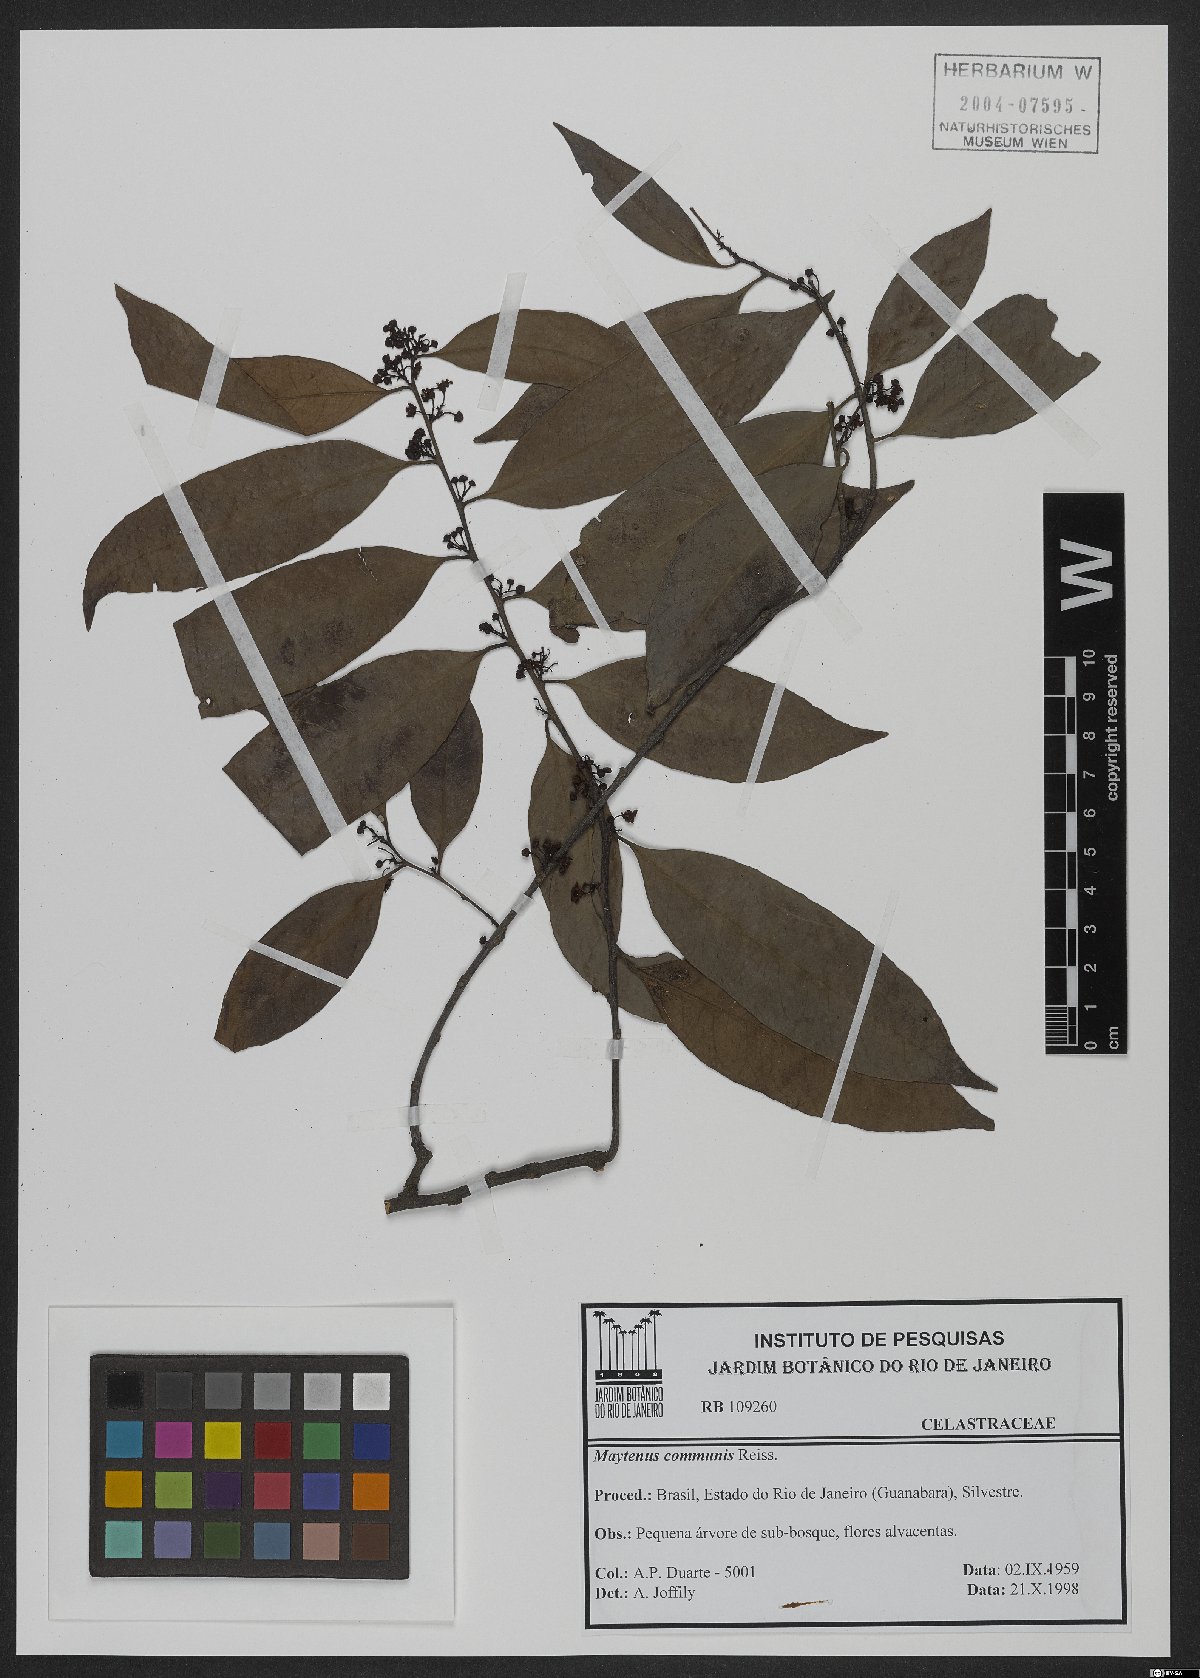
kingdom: Plantae
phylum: Tracheophyta
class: Magnoliopsida
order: Celastrales
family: Celastraceae
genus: Monteverdia
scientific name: Monteverdia communis
